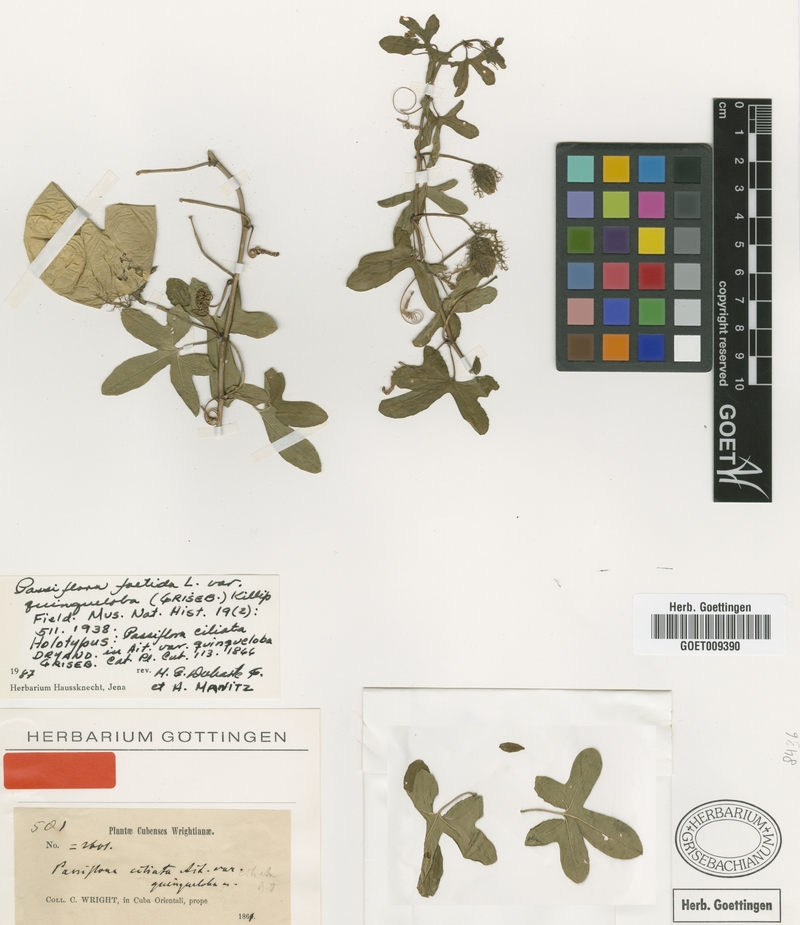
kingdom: Plantae
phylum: Tracheophyta
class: Magnoliopsida
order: Malpighiales
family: Passifloraceae
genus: Passiflora
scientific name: Passiflora ciliata
